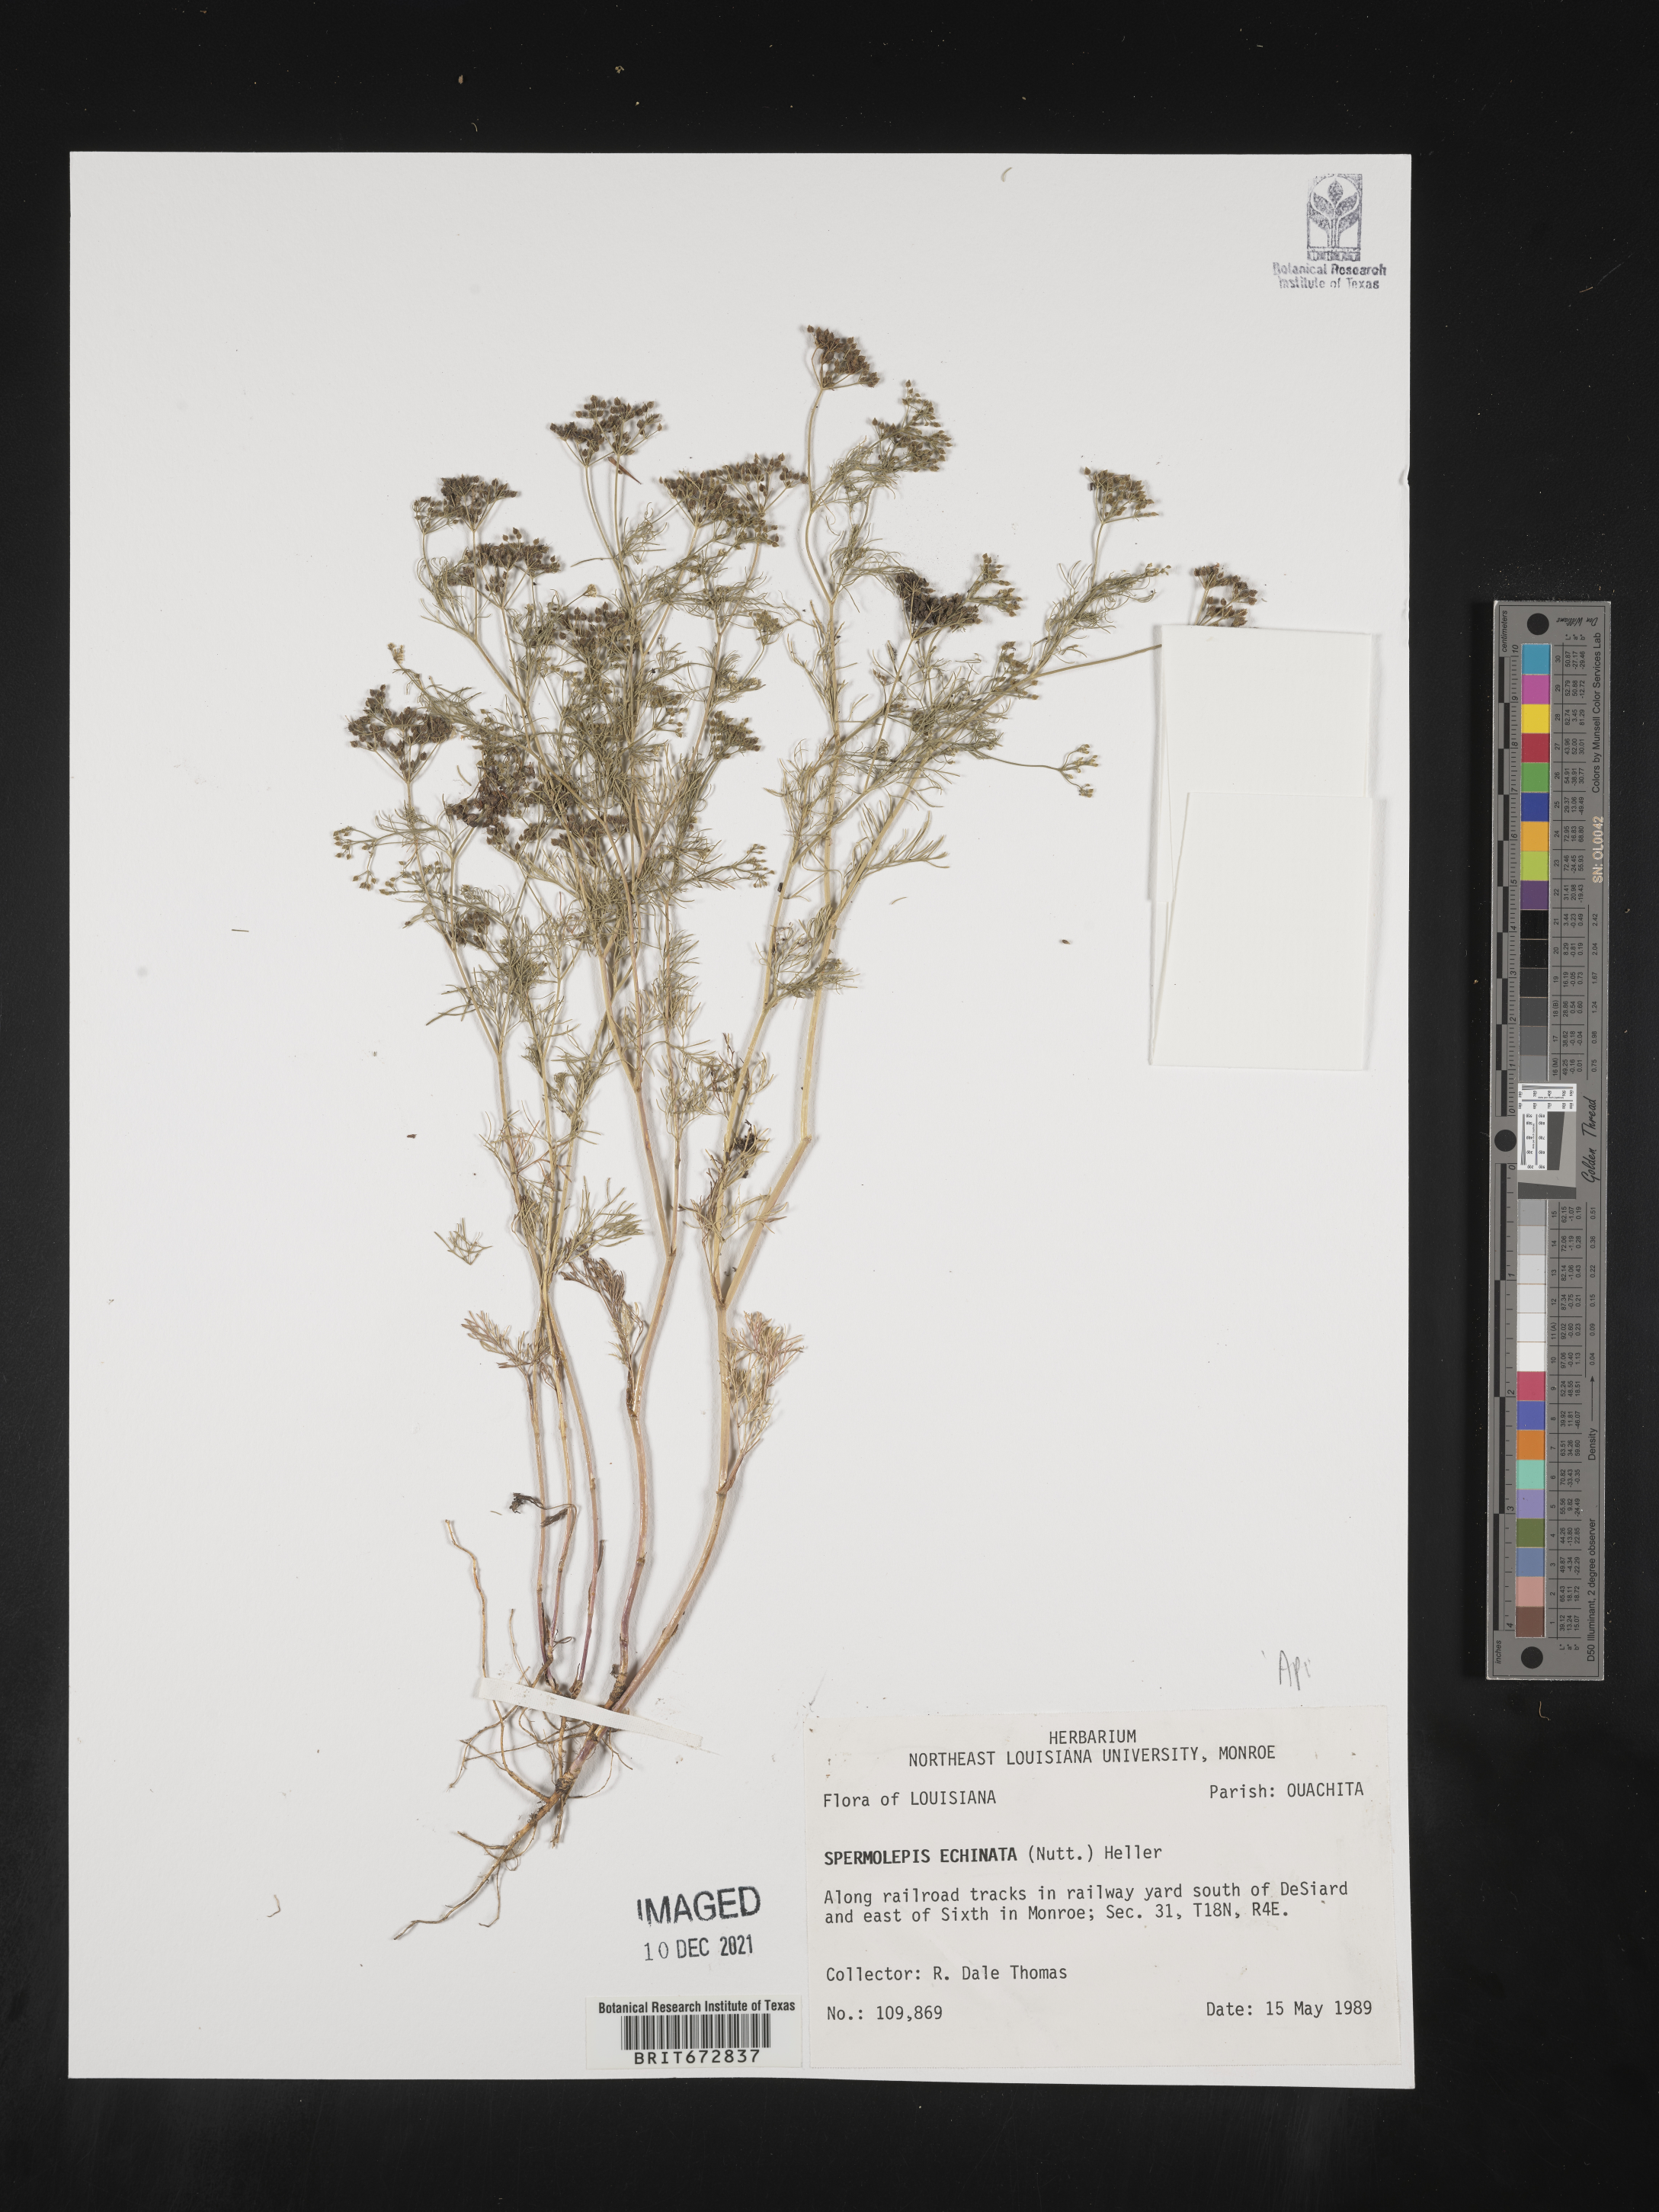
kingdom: Plantae
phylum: Tracheophyta
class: Magnoliopsida
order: Apiales
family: Apiaceae
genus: Spermolepis
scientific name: Spermolepis echinata
